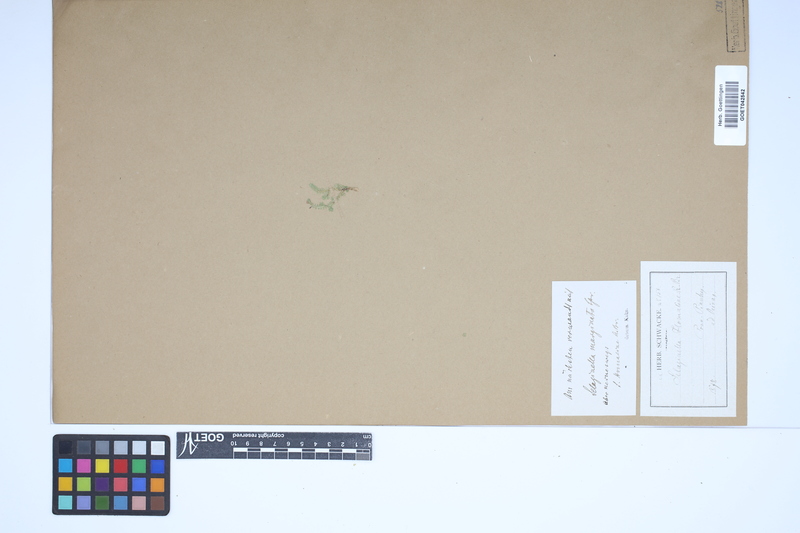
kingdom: Plantae
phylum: Tracheophyta
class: Lycopodiopsida
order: Selaginellales
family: Selaginellaceae
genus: Selaginella
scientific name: Selaginella marginata
